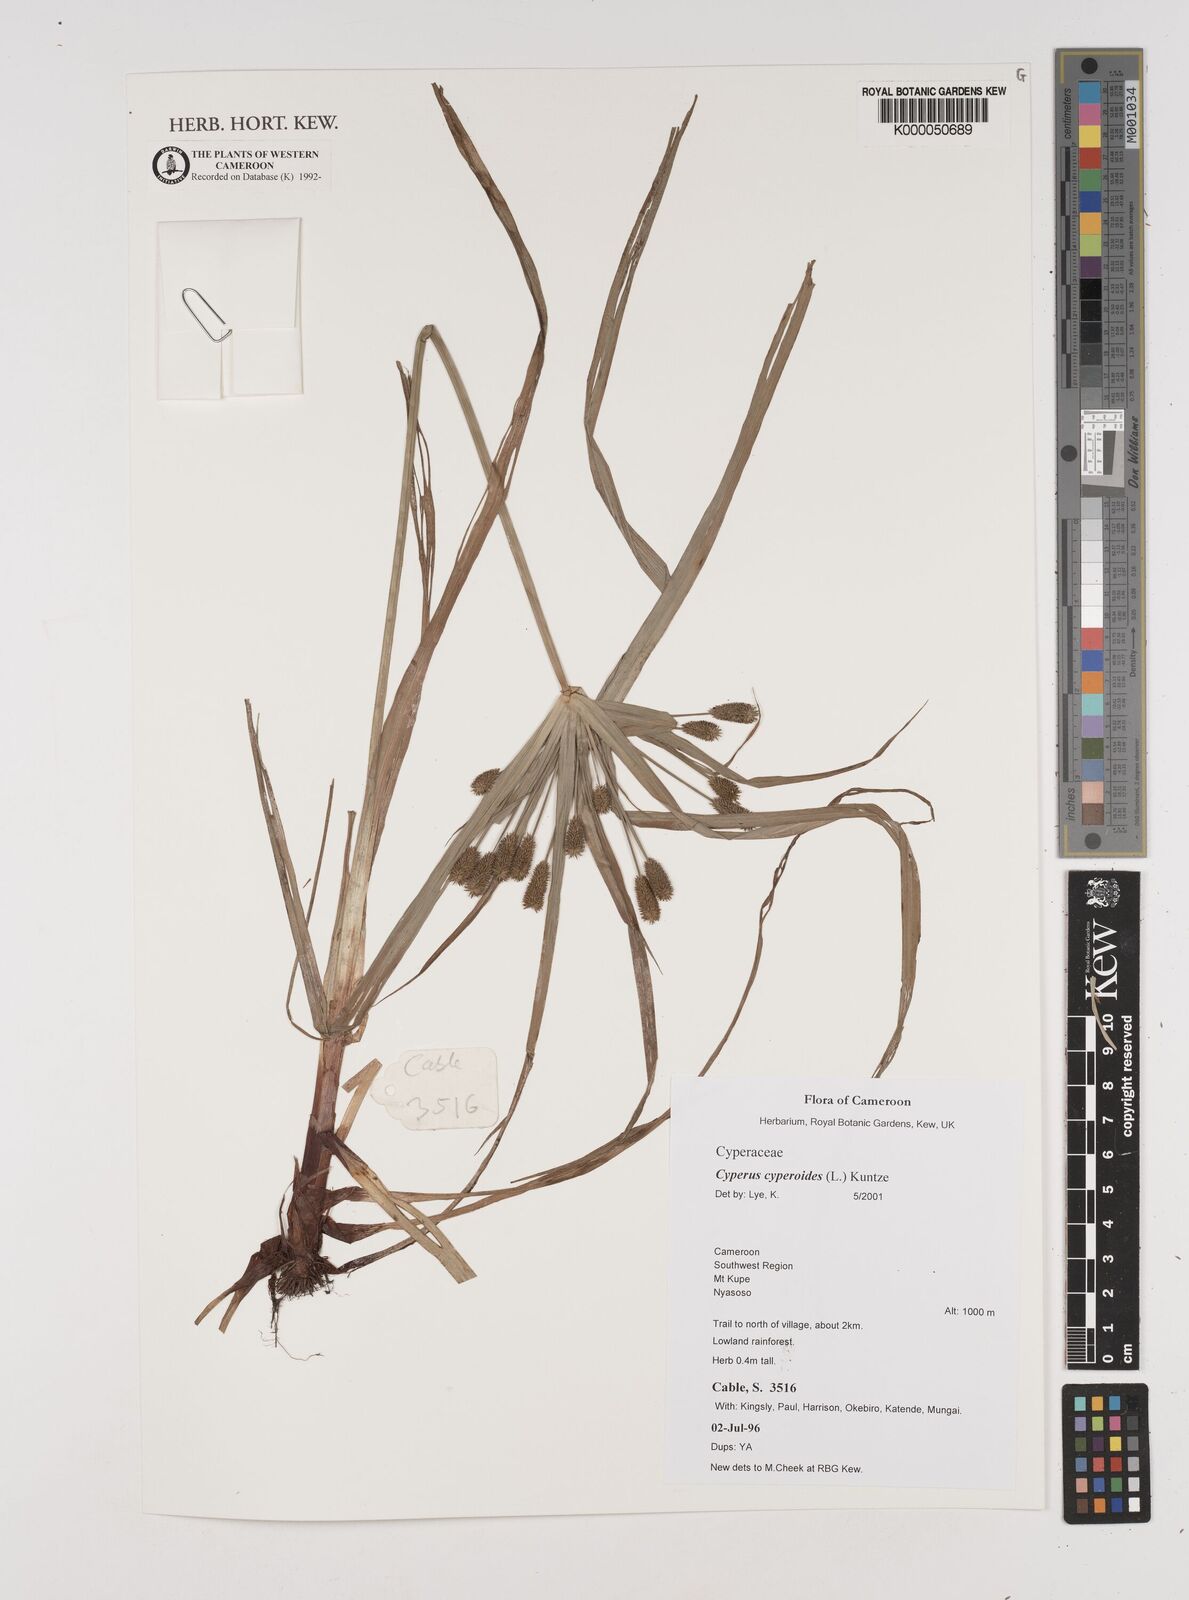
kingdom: Plantae
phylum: Tracheophyta
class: Liliopsida
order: Poales
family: Cyperaceae
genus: Cyperus
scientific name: Cyperus cyperoides
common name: Pacific island flat sedge
